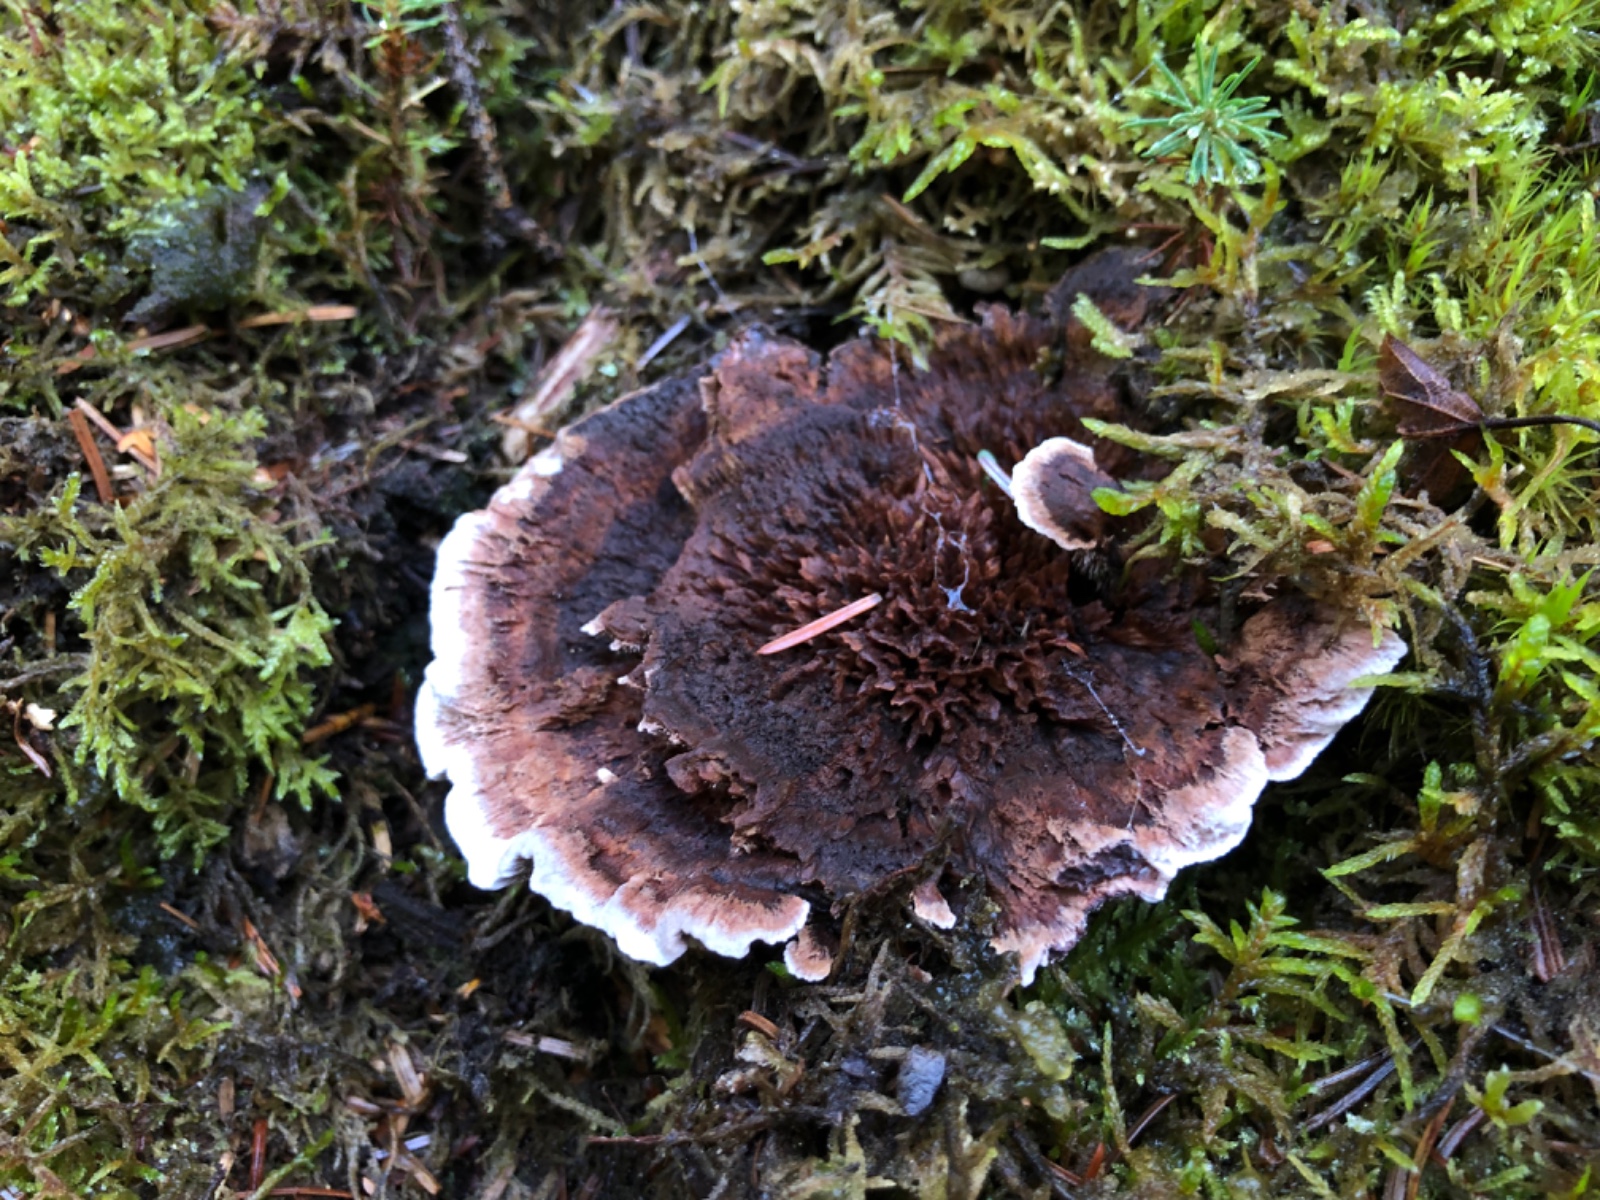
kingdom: Fungi
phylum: Basidiomycota
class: Agaricomycetes
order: Thelephorales
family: Bankeraceae
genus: Hydnellum
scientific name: Hydnellum concrescens
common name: Zoned tooth
